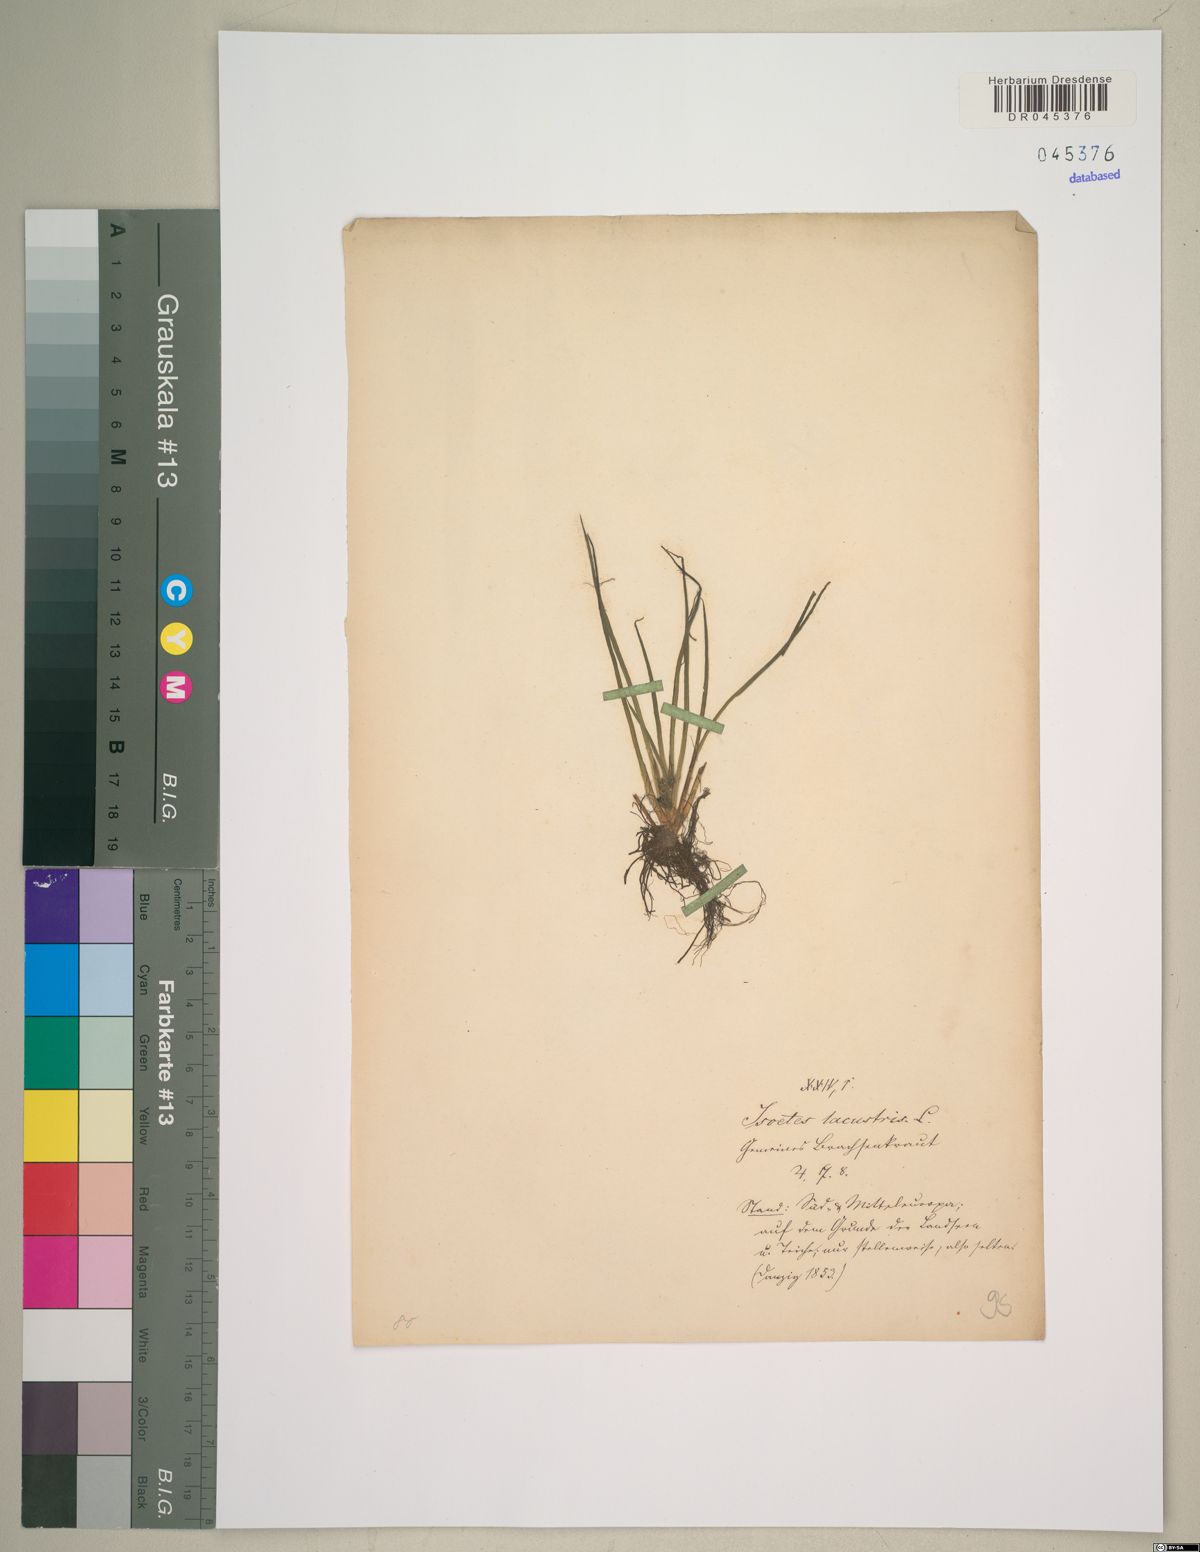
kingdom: Plantae
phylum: Tracheophyta
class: Lycopodiopsida
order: Isoetales
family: Isoetaceae
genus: Isoetes
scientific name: Isoetes lacustris
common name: Common quillwort
